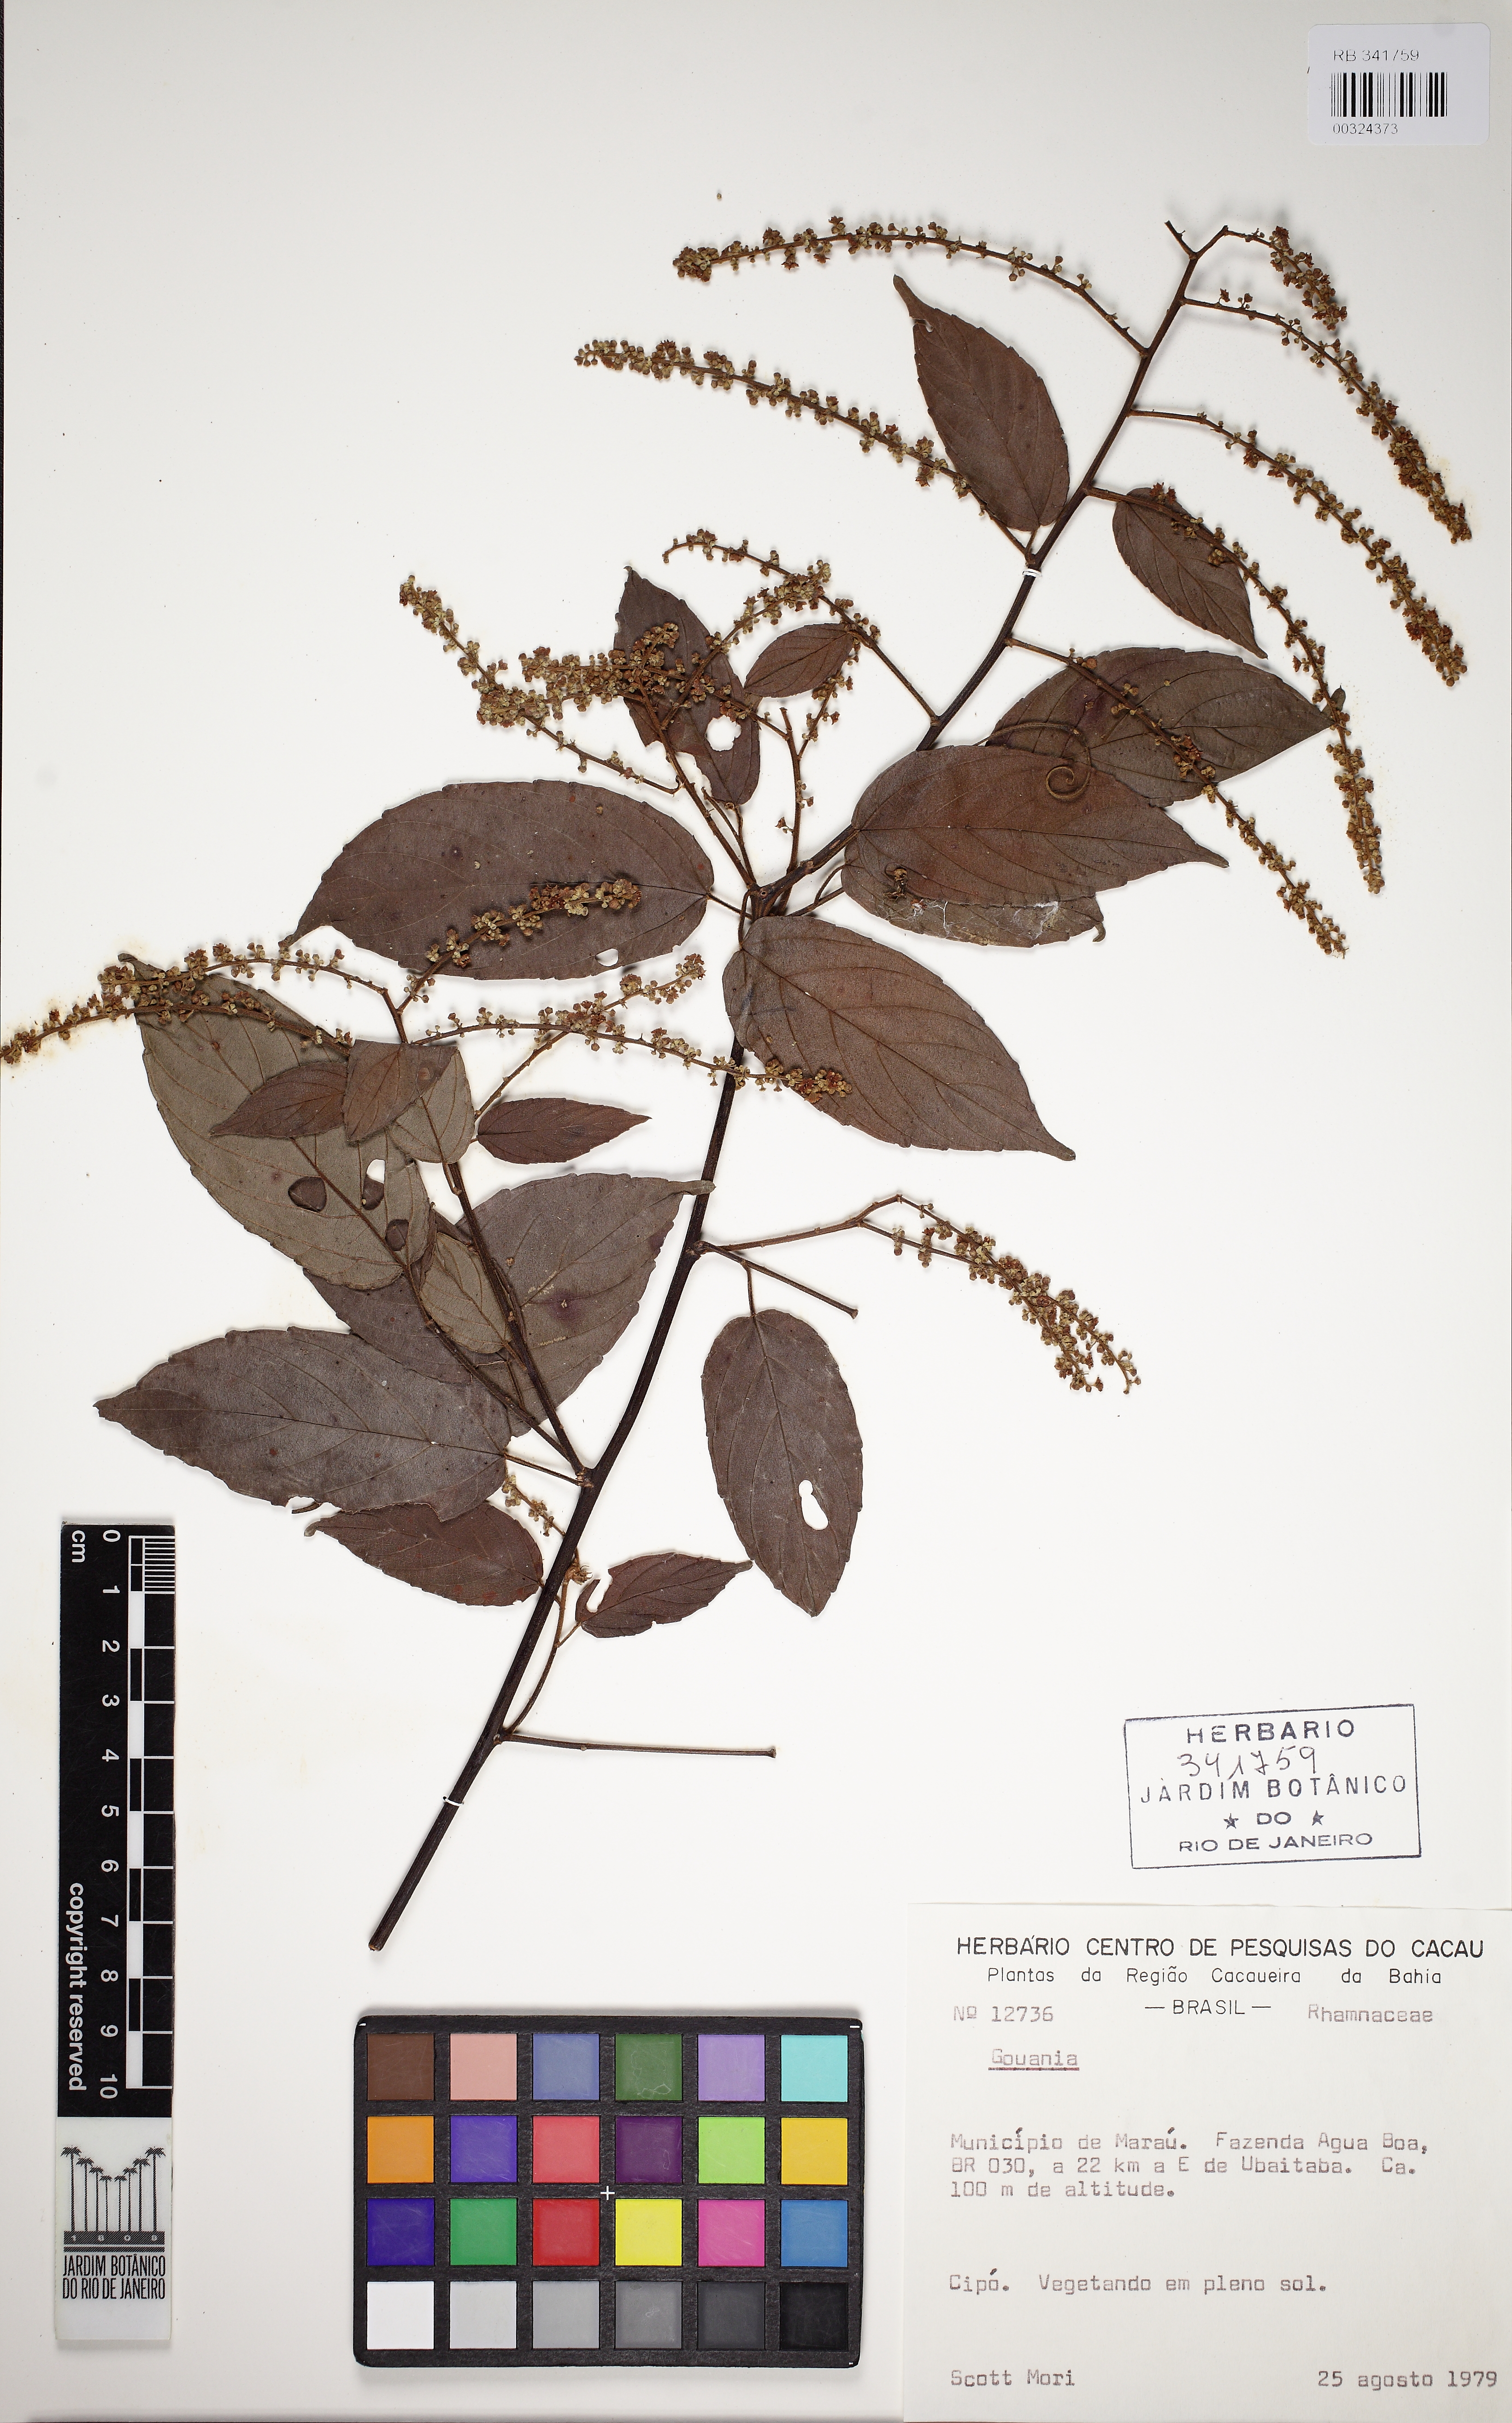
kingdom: Plantae
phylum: Tracheophyta
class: Magnoliopsida
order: Rosales
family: Rhamnaceae
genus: Gouania
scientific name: Gouania
